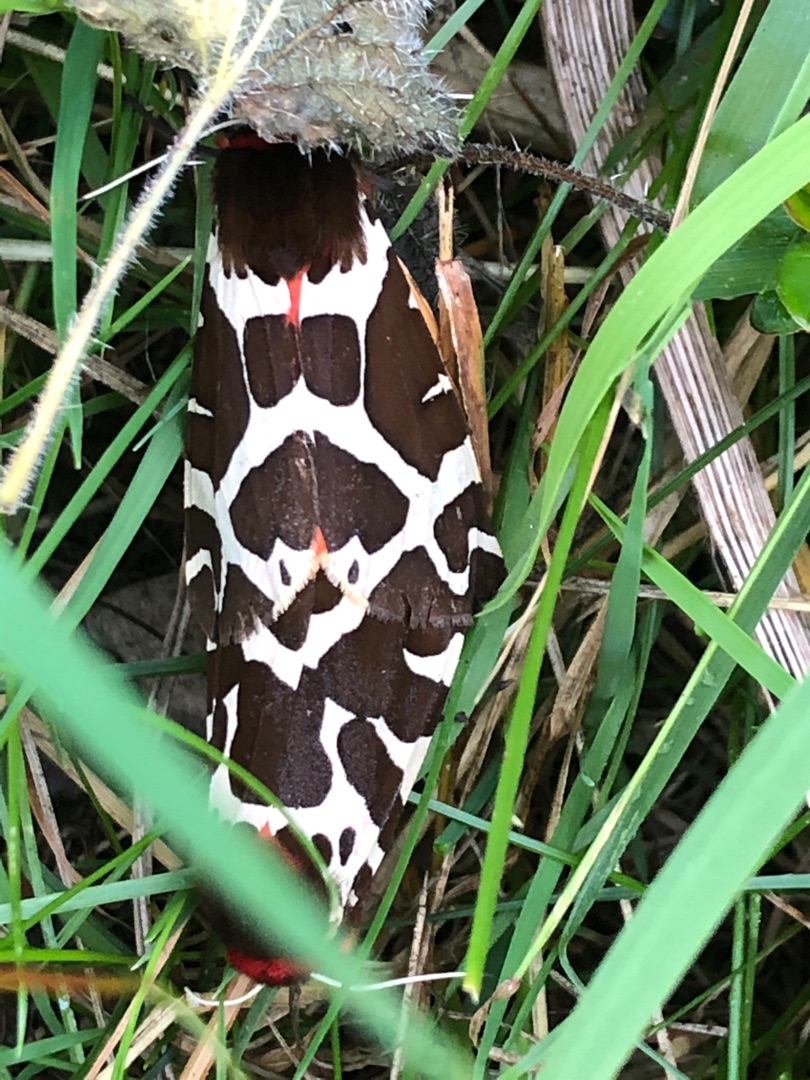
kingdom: Animalia
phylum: Arthropoda
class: Insecta
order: Lepidoptera
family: Erebidae
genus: Arctia
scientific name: Arctia caja
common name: Brun bjørn
